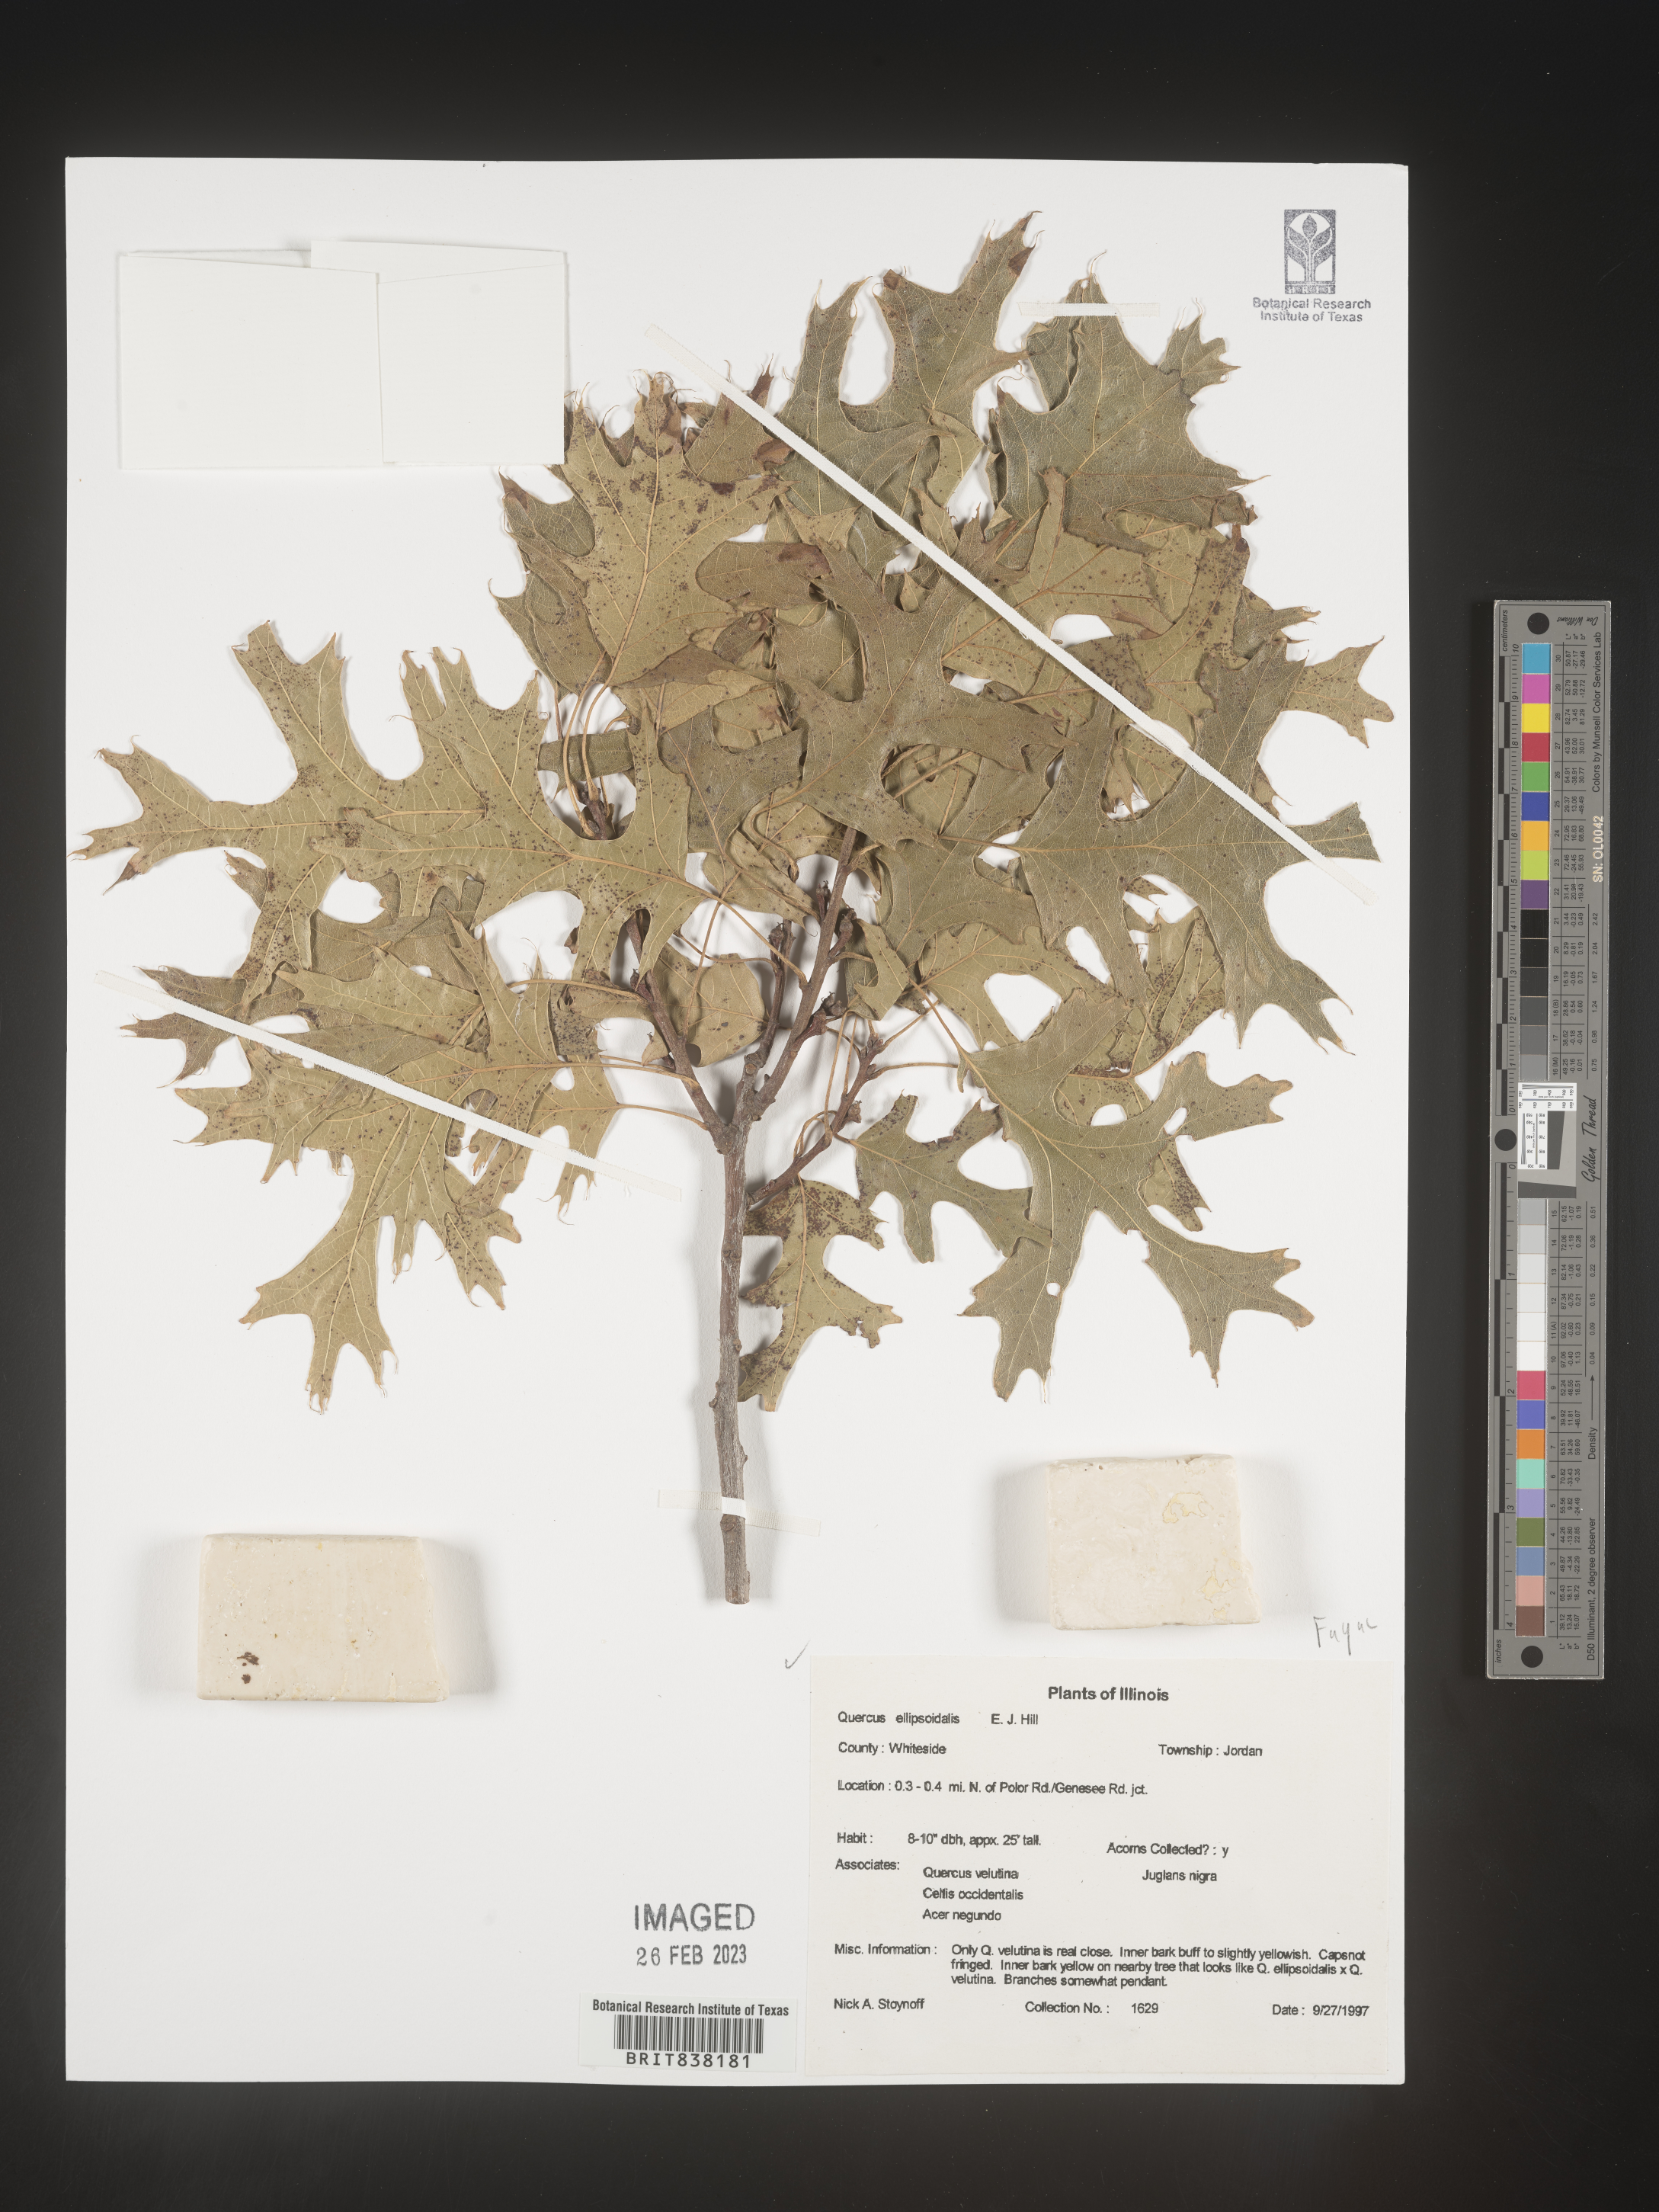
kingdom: Plantae
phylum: Tracheophyta
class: Magnoliopsida
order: Fagales
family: Fagaceae
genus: Quercus
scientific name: Quercus ellipsoidalis
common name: Hill's oak
